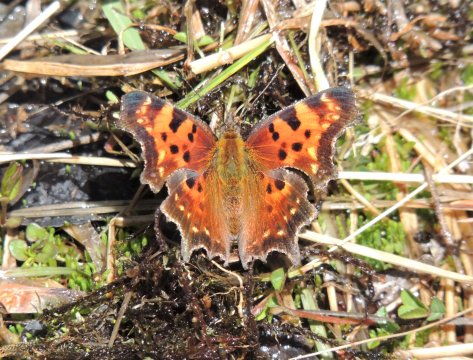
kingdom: Animalia
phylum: Arthropoda
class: Insecta
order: Lepidoptera
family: Nymphalidae
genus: Polygonia
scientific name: Polygonia faunus
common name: Green Comma
